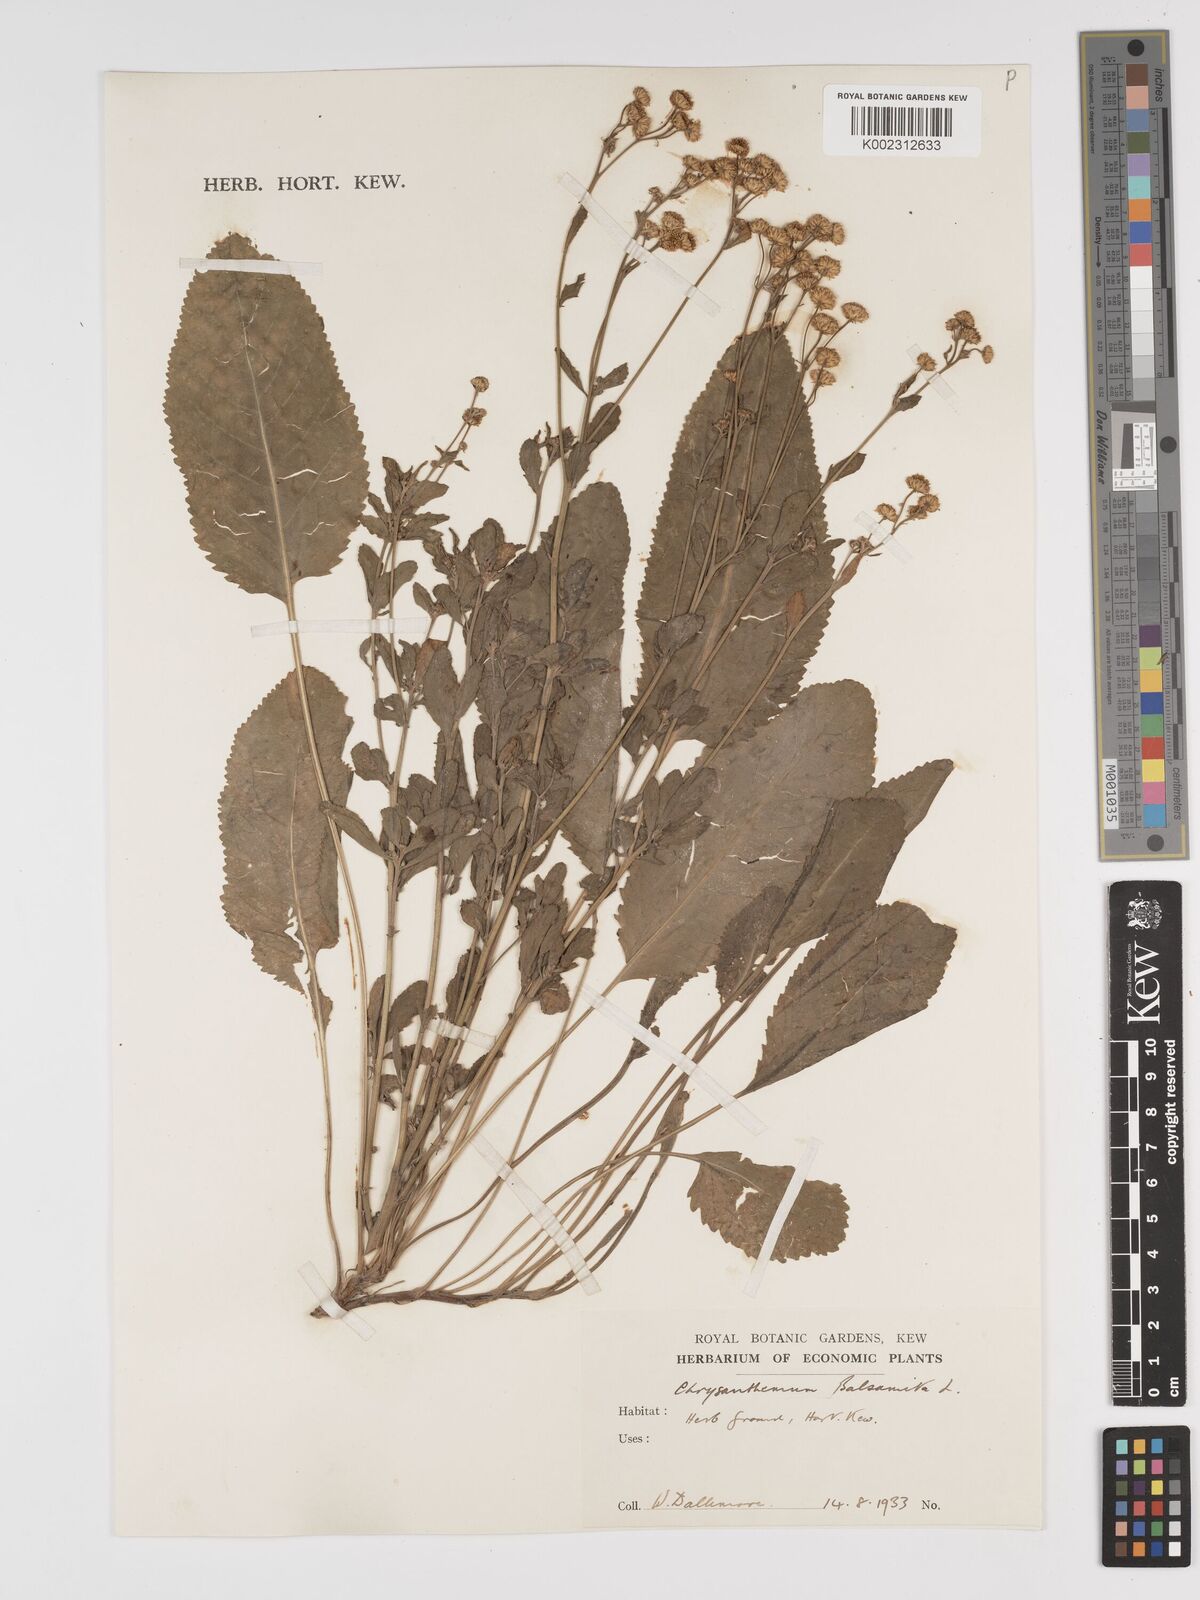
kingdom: Plantae
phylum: Tracheophyta
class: Magnoliopsida
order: Asterales
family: Asteraceae
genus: Tanacetum
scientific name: Tanacetum balsamita
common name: Costmary
